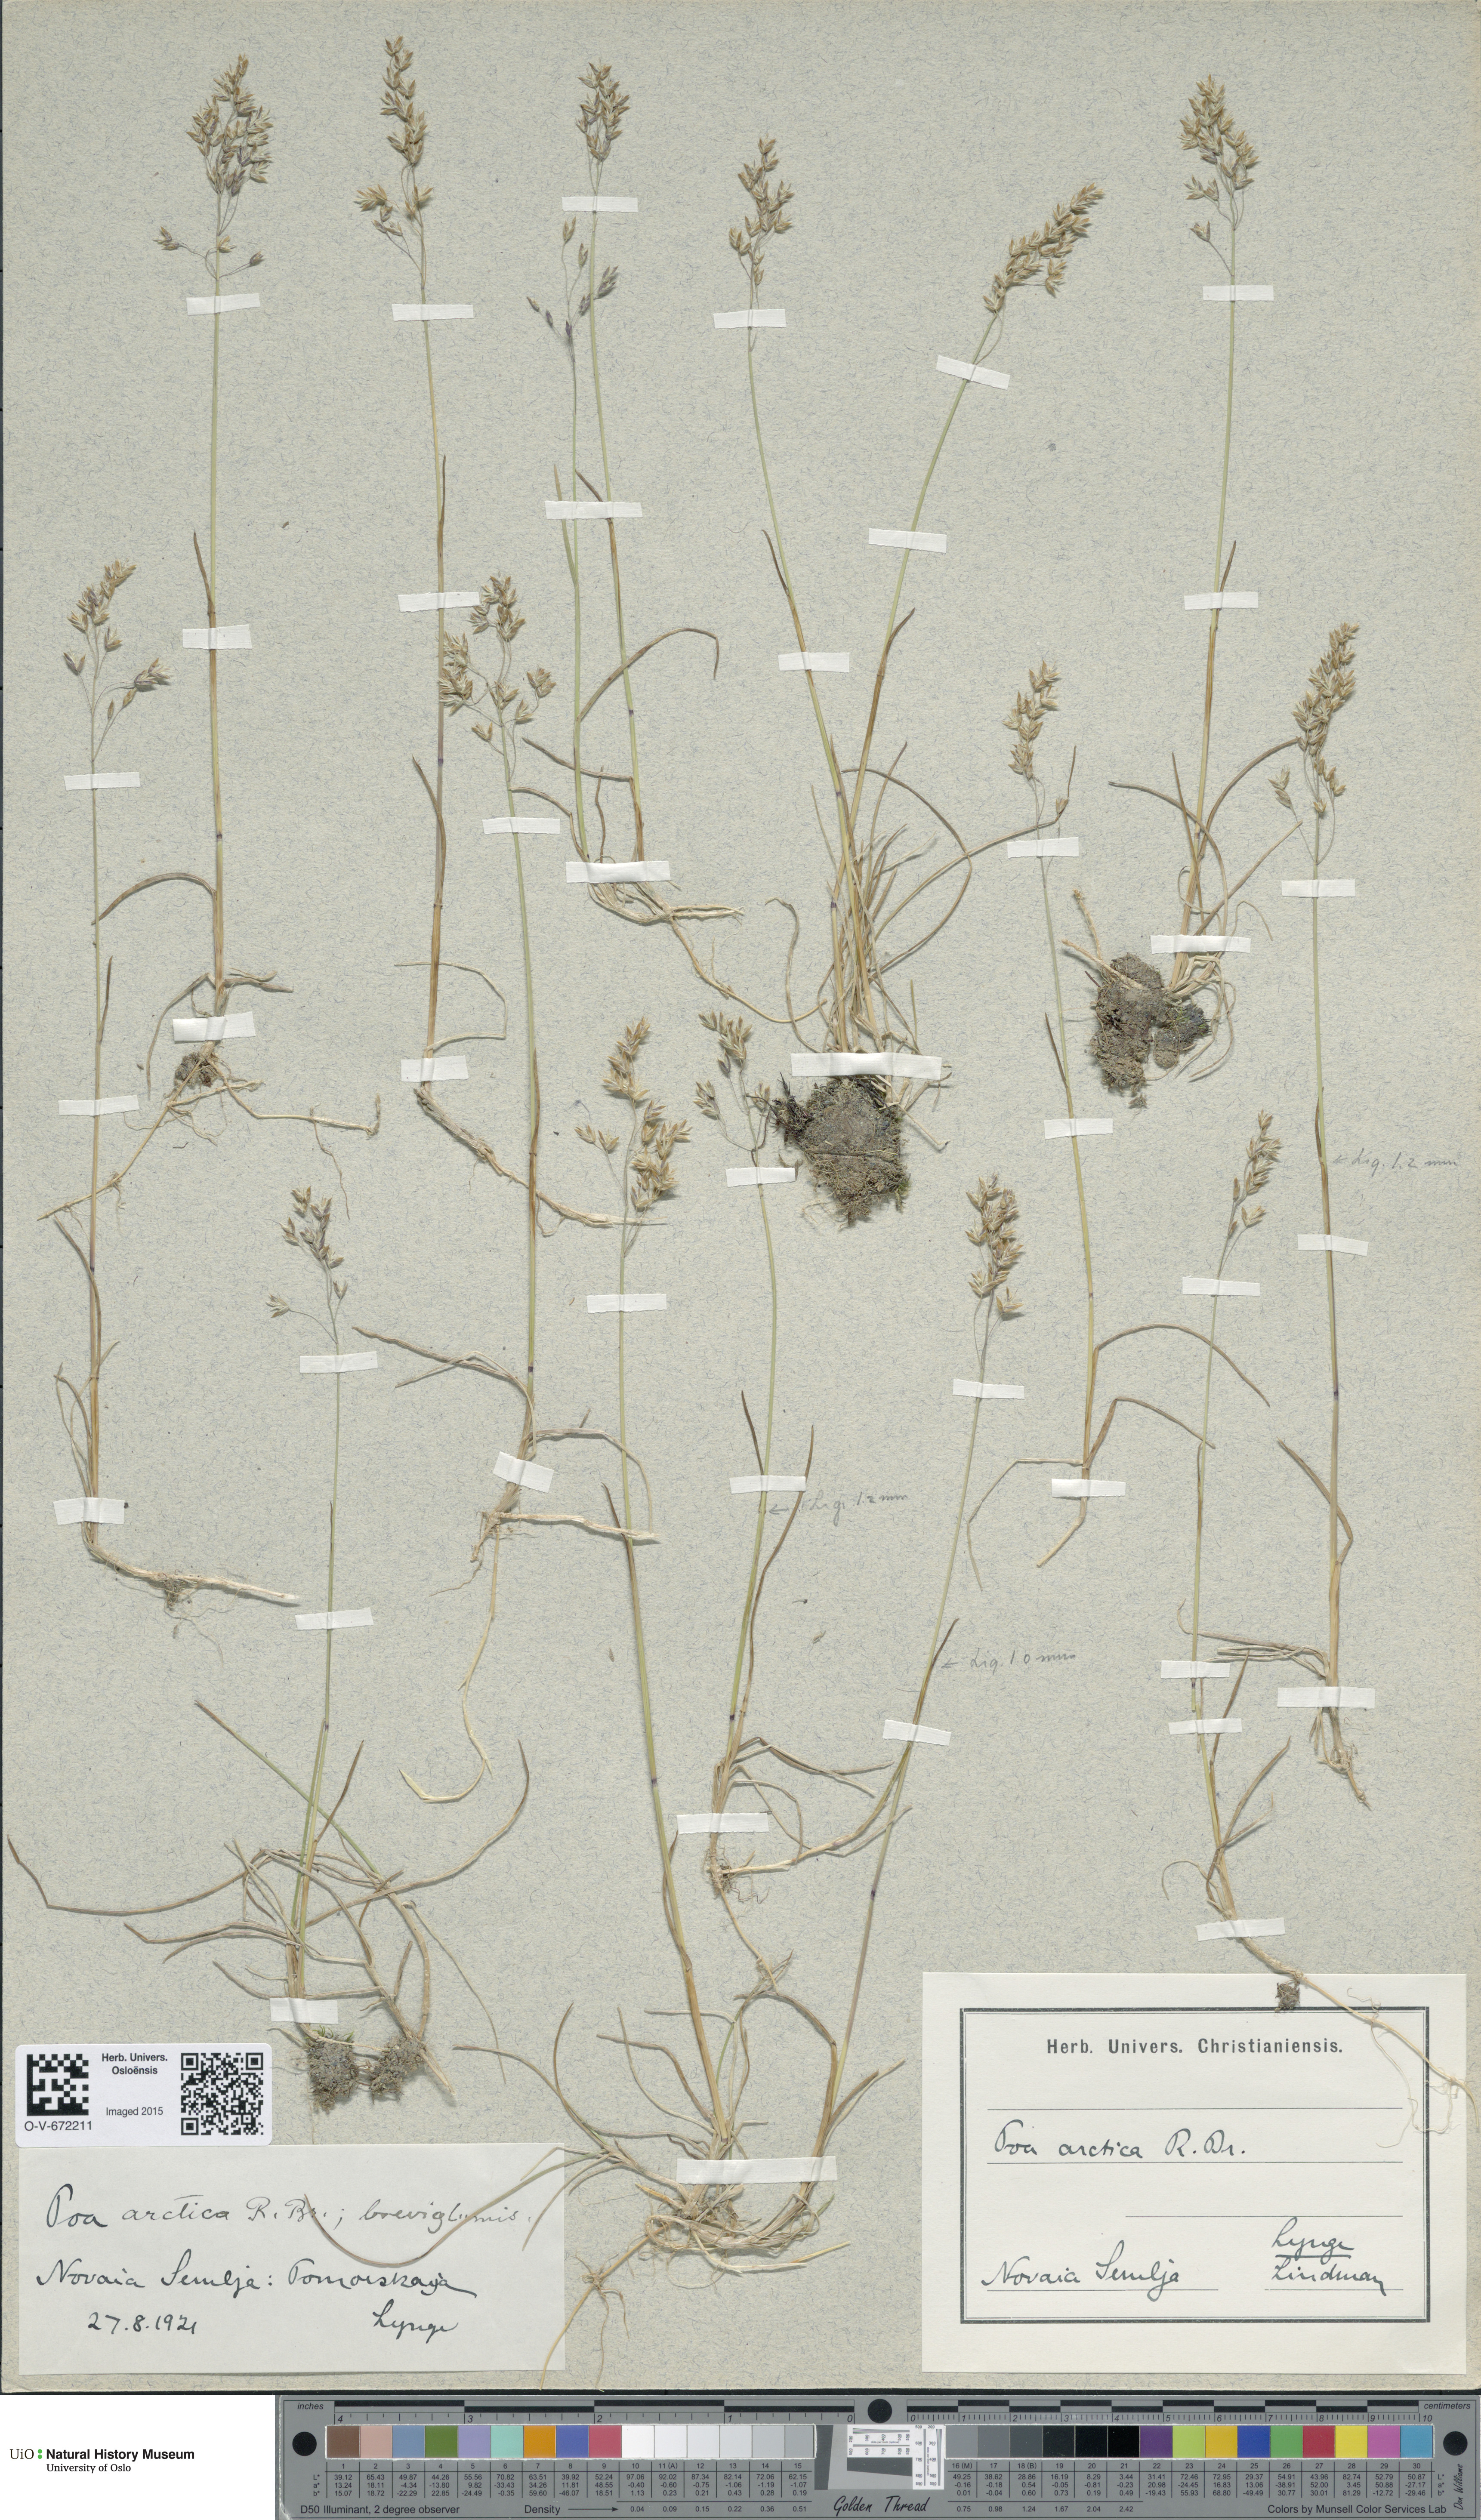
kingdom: Plantae
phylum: Tracheophyta
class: Liliopsida
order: Poales
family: Poaceae
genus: Poa
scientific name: Poa arctica
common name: Arctic bluegrass
